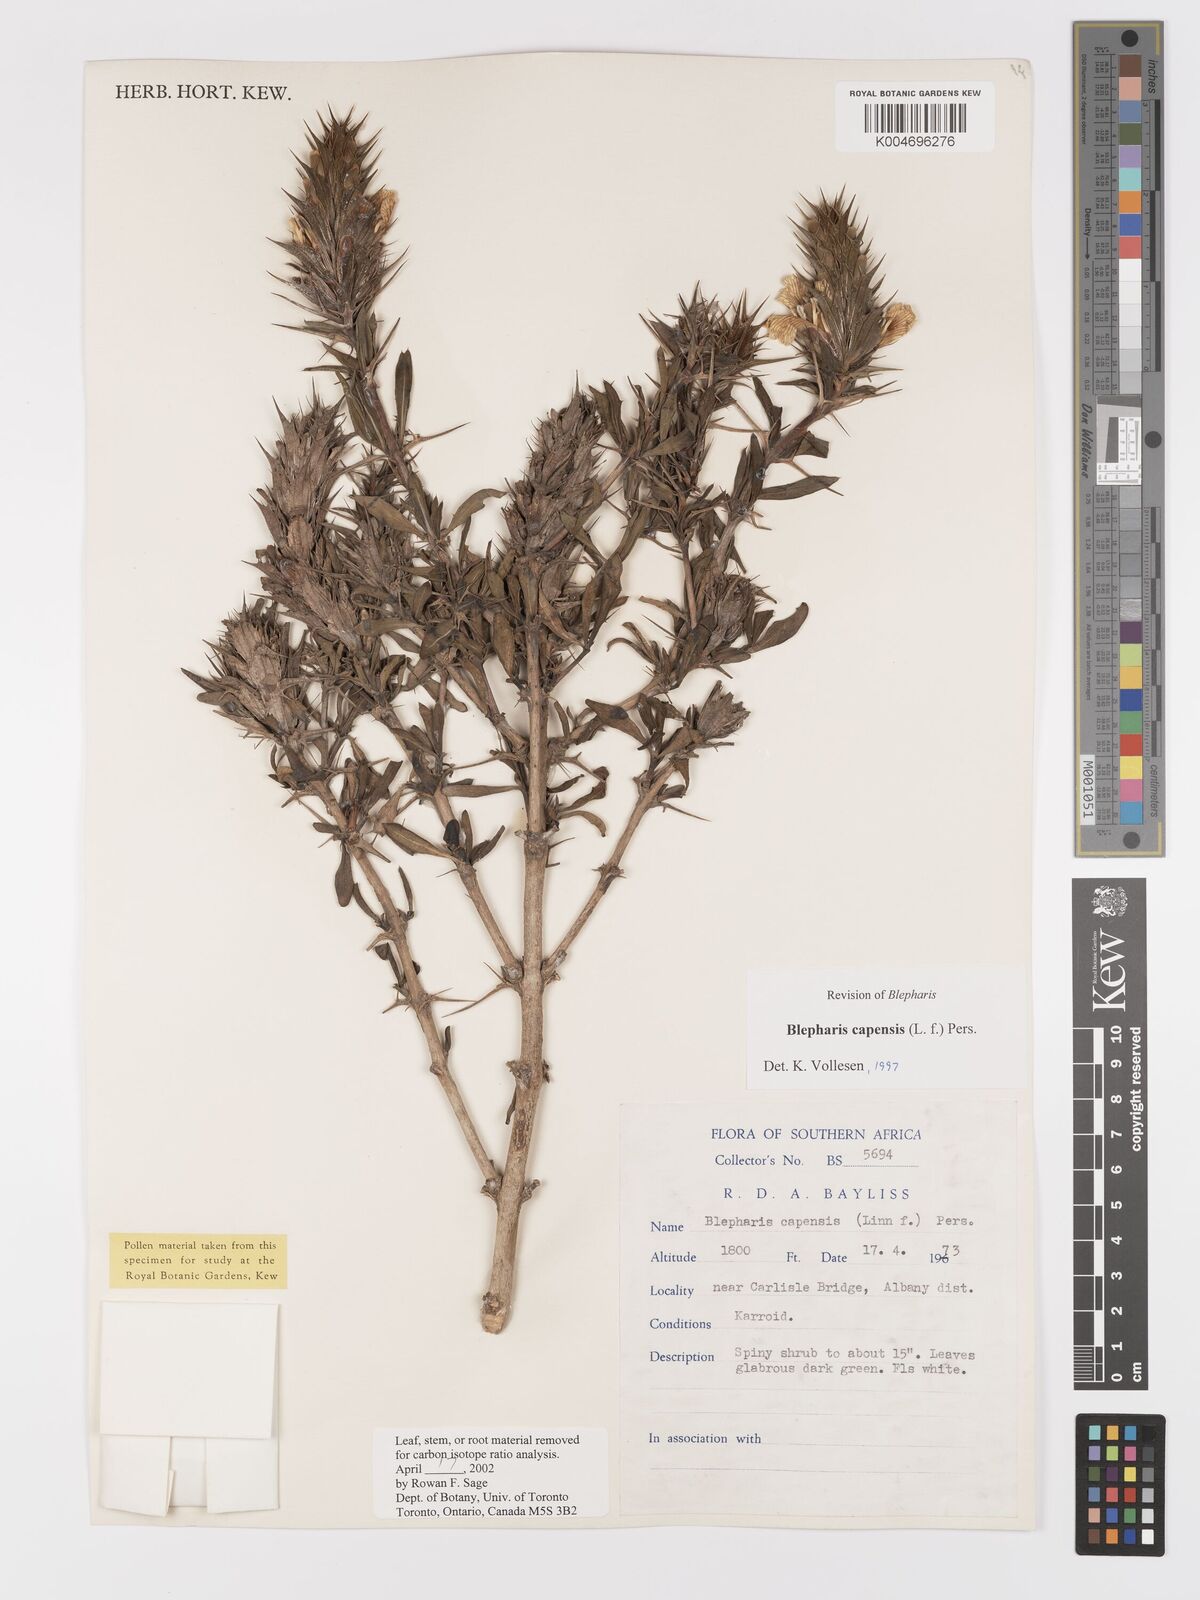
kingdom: Plantae
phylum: Tracheophyta
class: Magnoliopsida
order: Lamiales
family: Acanthaceae
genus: Blepharis
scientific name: Blepharis capensis
